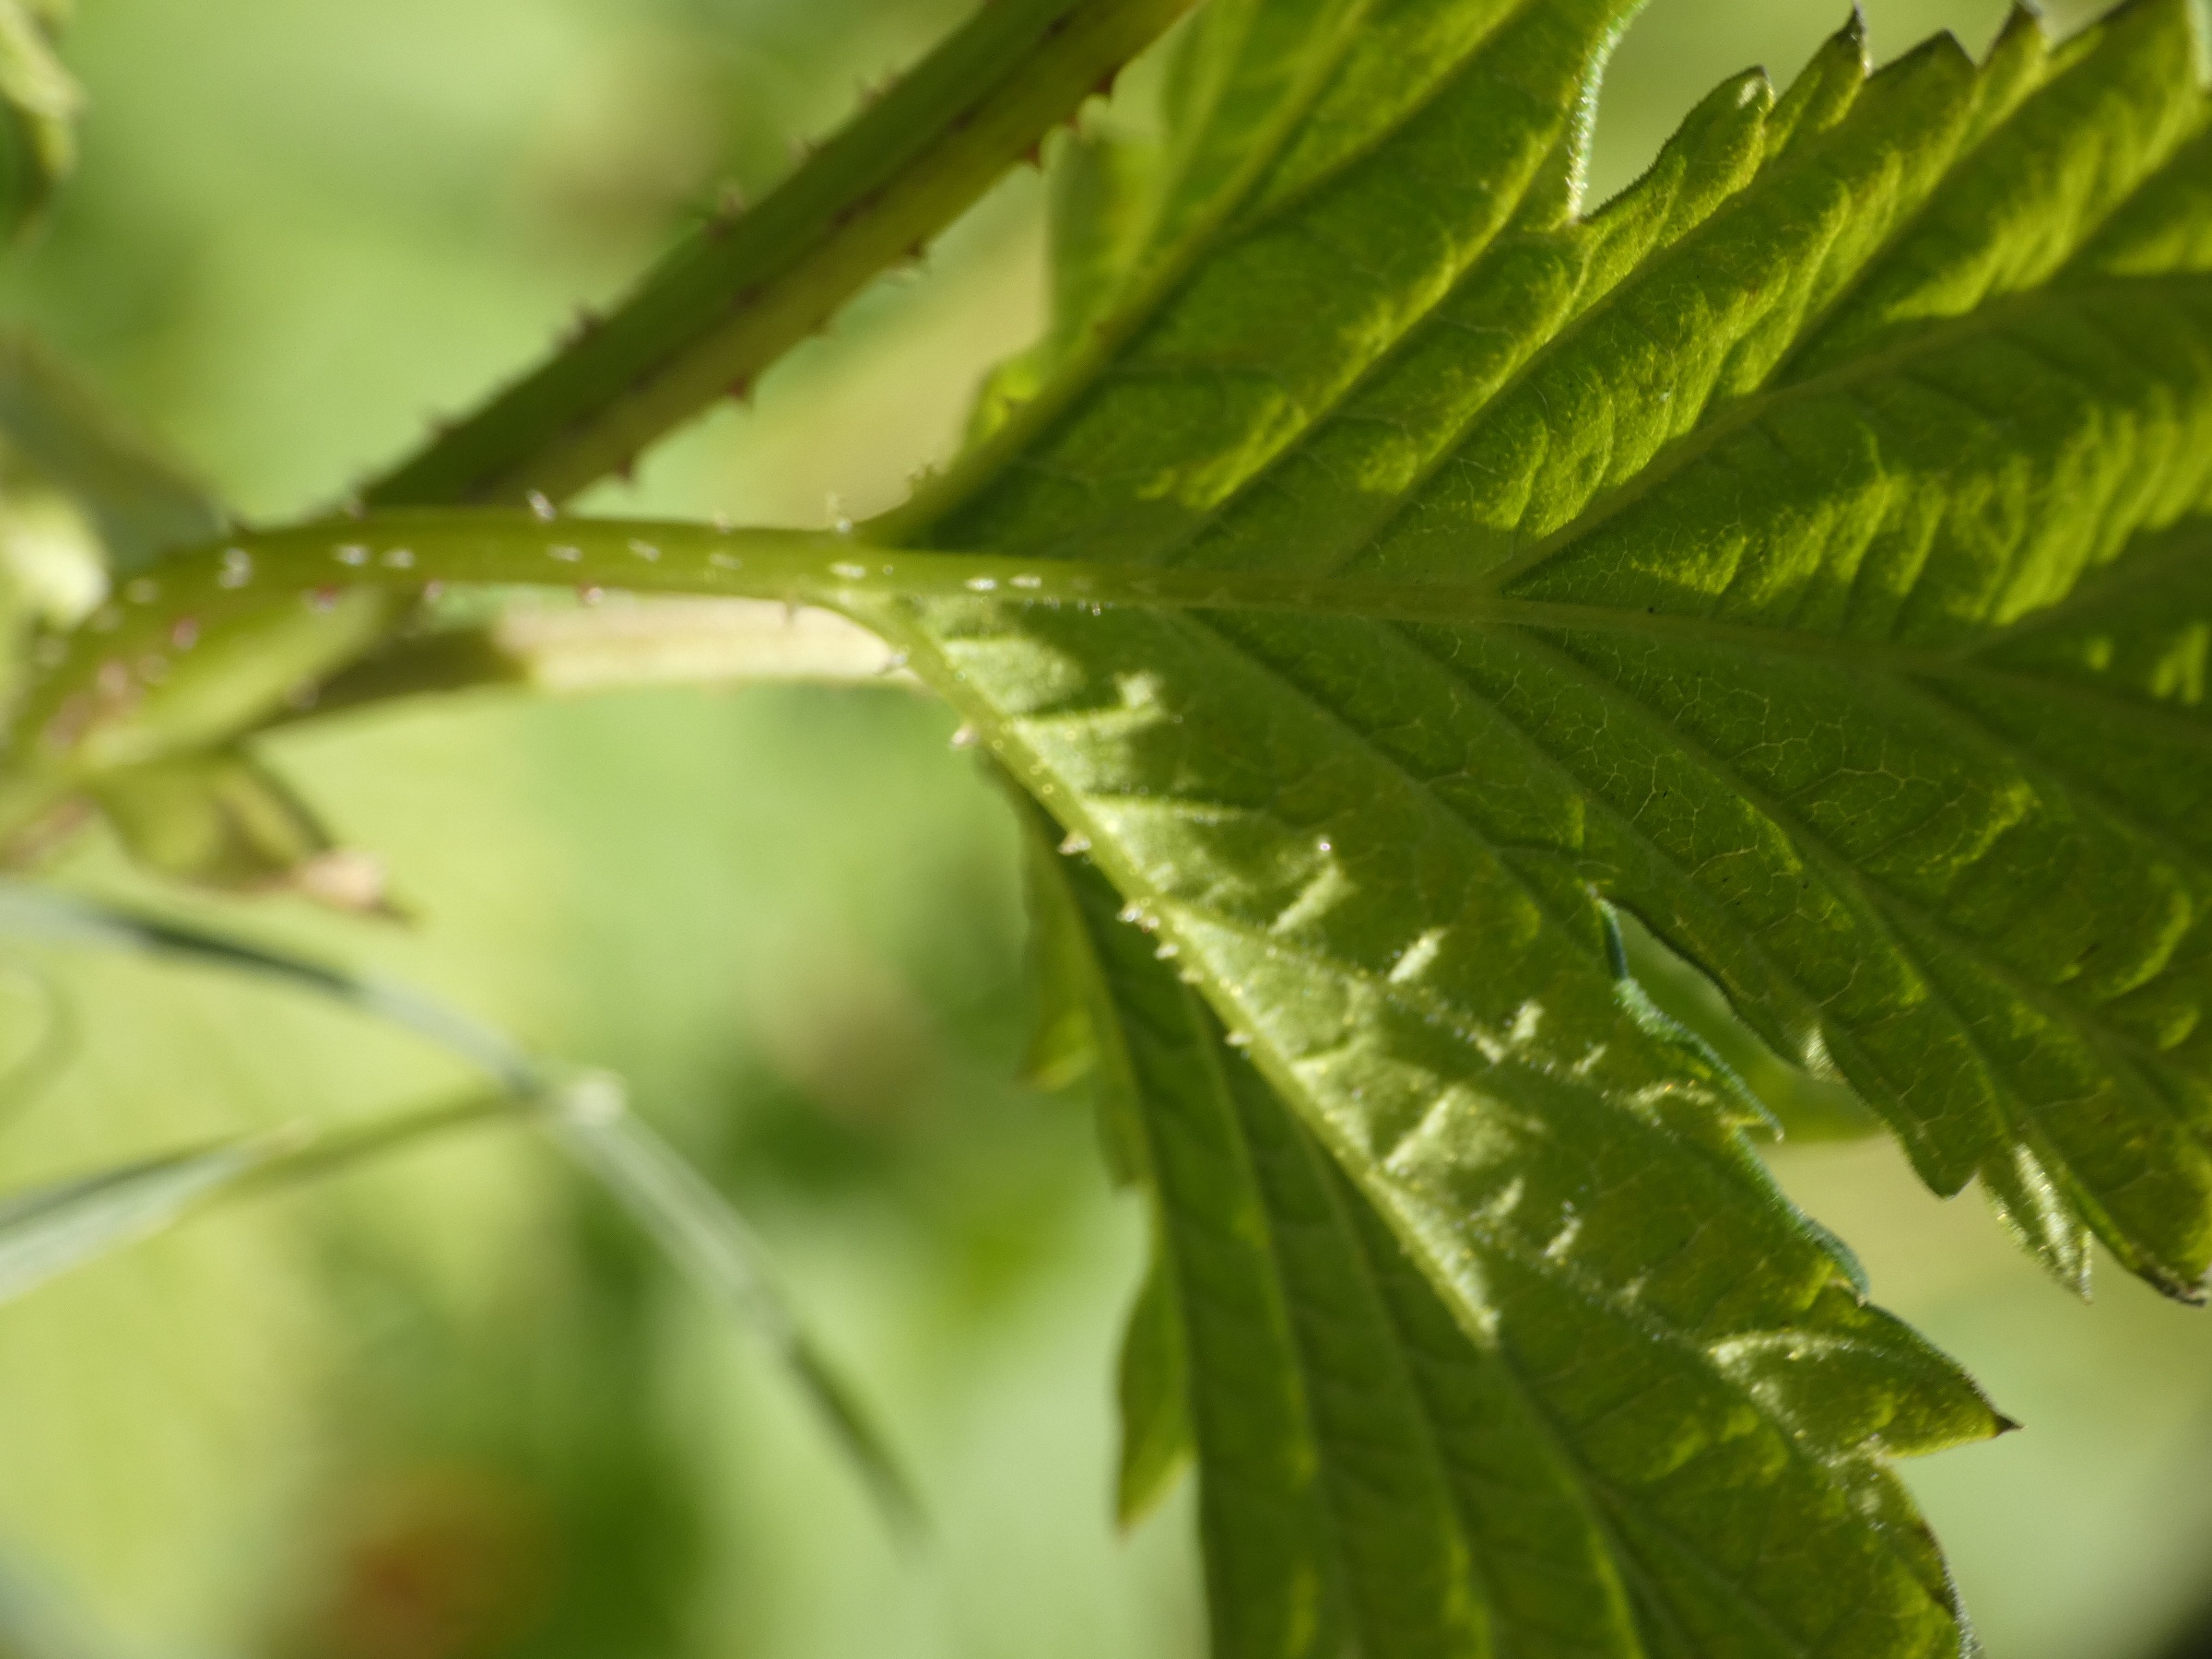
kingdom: Plantae
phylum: Tracheophyta
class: Magnoliopsida
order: Rosales
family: Cannabaceae
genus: Humulus
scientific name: Humulus lupulus
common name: Humle
